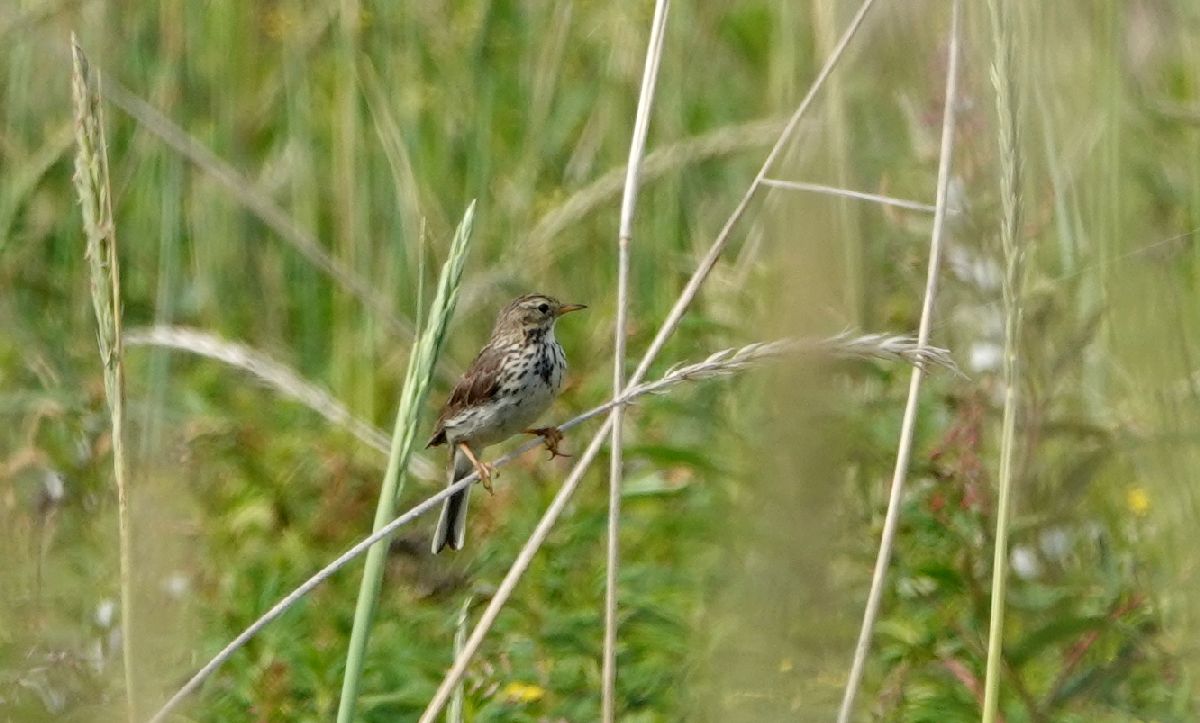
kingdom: Animalia
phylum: Chordata
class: Aves
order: Passeriformes
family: Motacillidae
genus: Anthus
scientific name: Anthus pratensis
